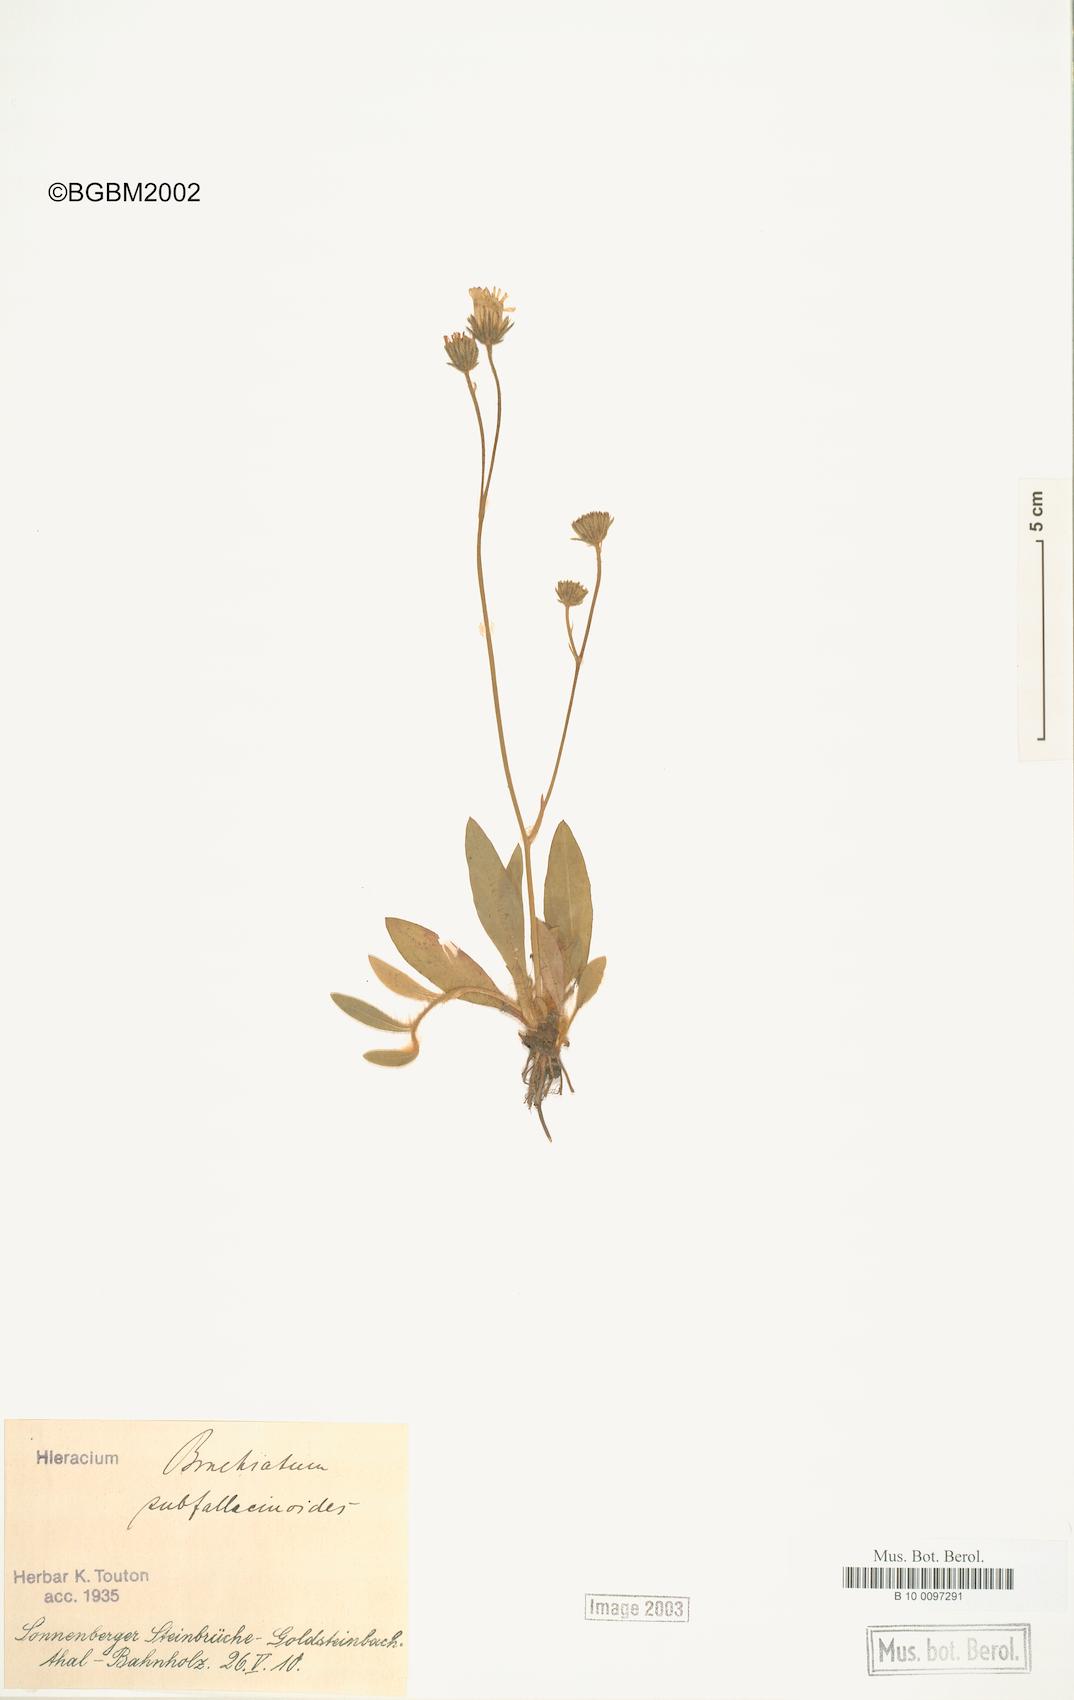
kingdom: Plantae
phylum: Tracheophyta
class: Magnoliopsida
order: Asterales
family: Asteraceae
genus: Pilosella
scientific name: Pilosella acutifolia
